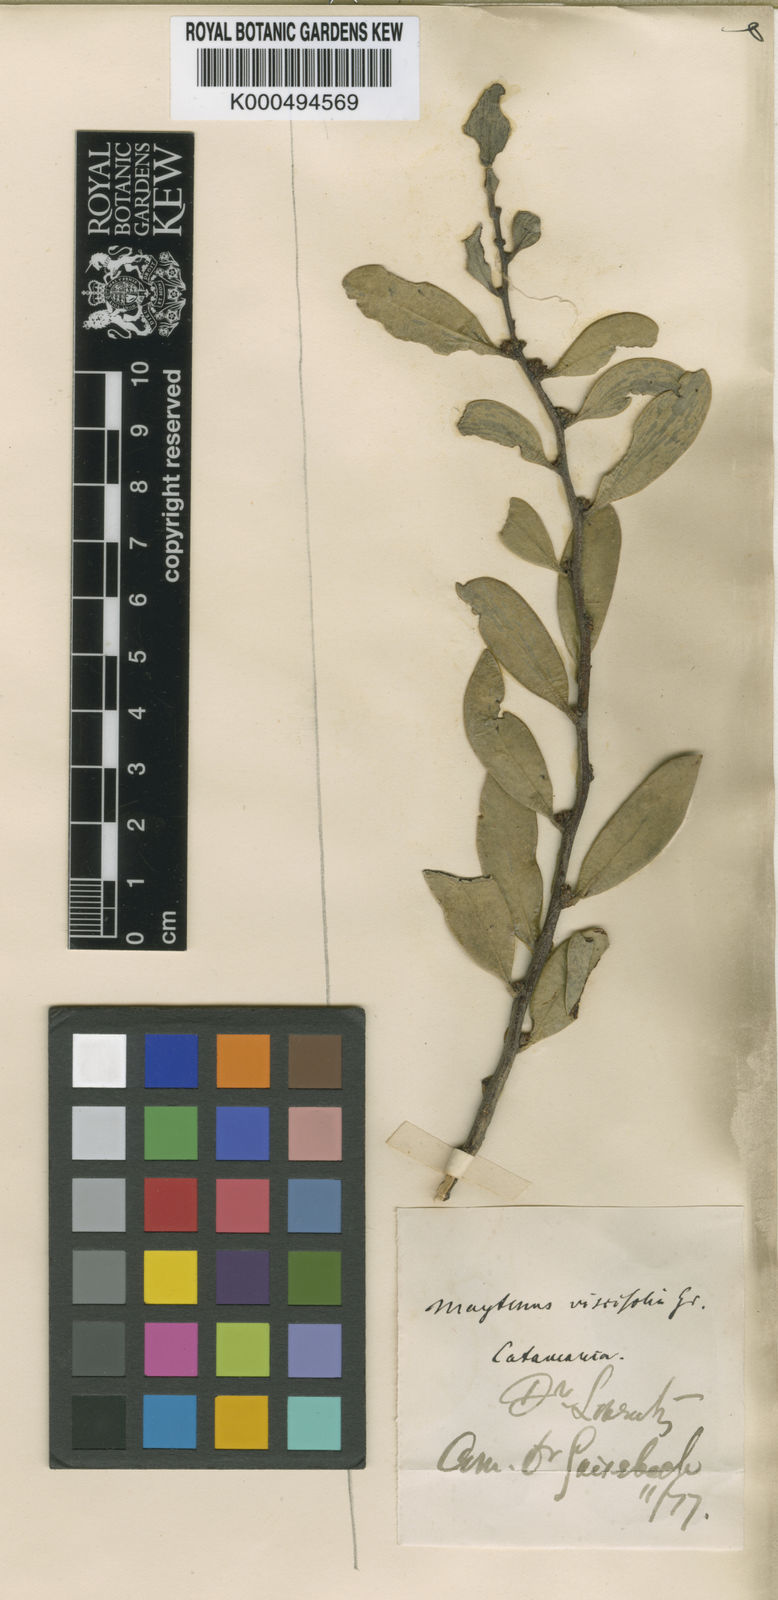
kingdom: Plantae
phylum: Tracheophyta
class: Magnoliopsida
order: Celastrales
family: Celastraceae
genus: Tricerma
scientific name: Tricerma vitis-idaeum
